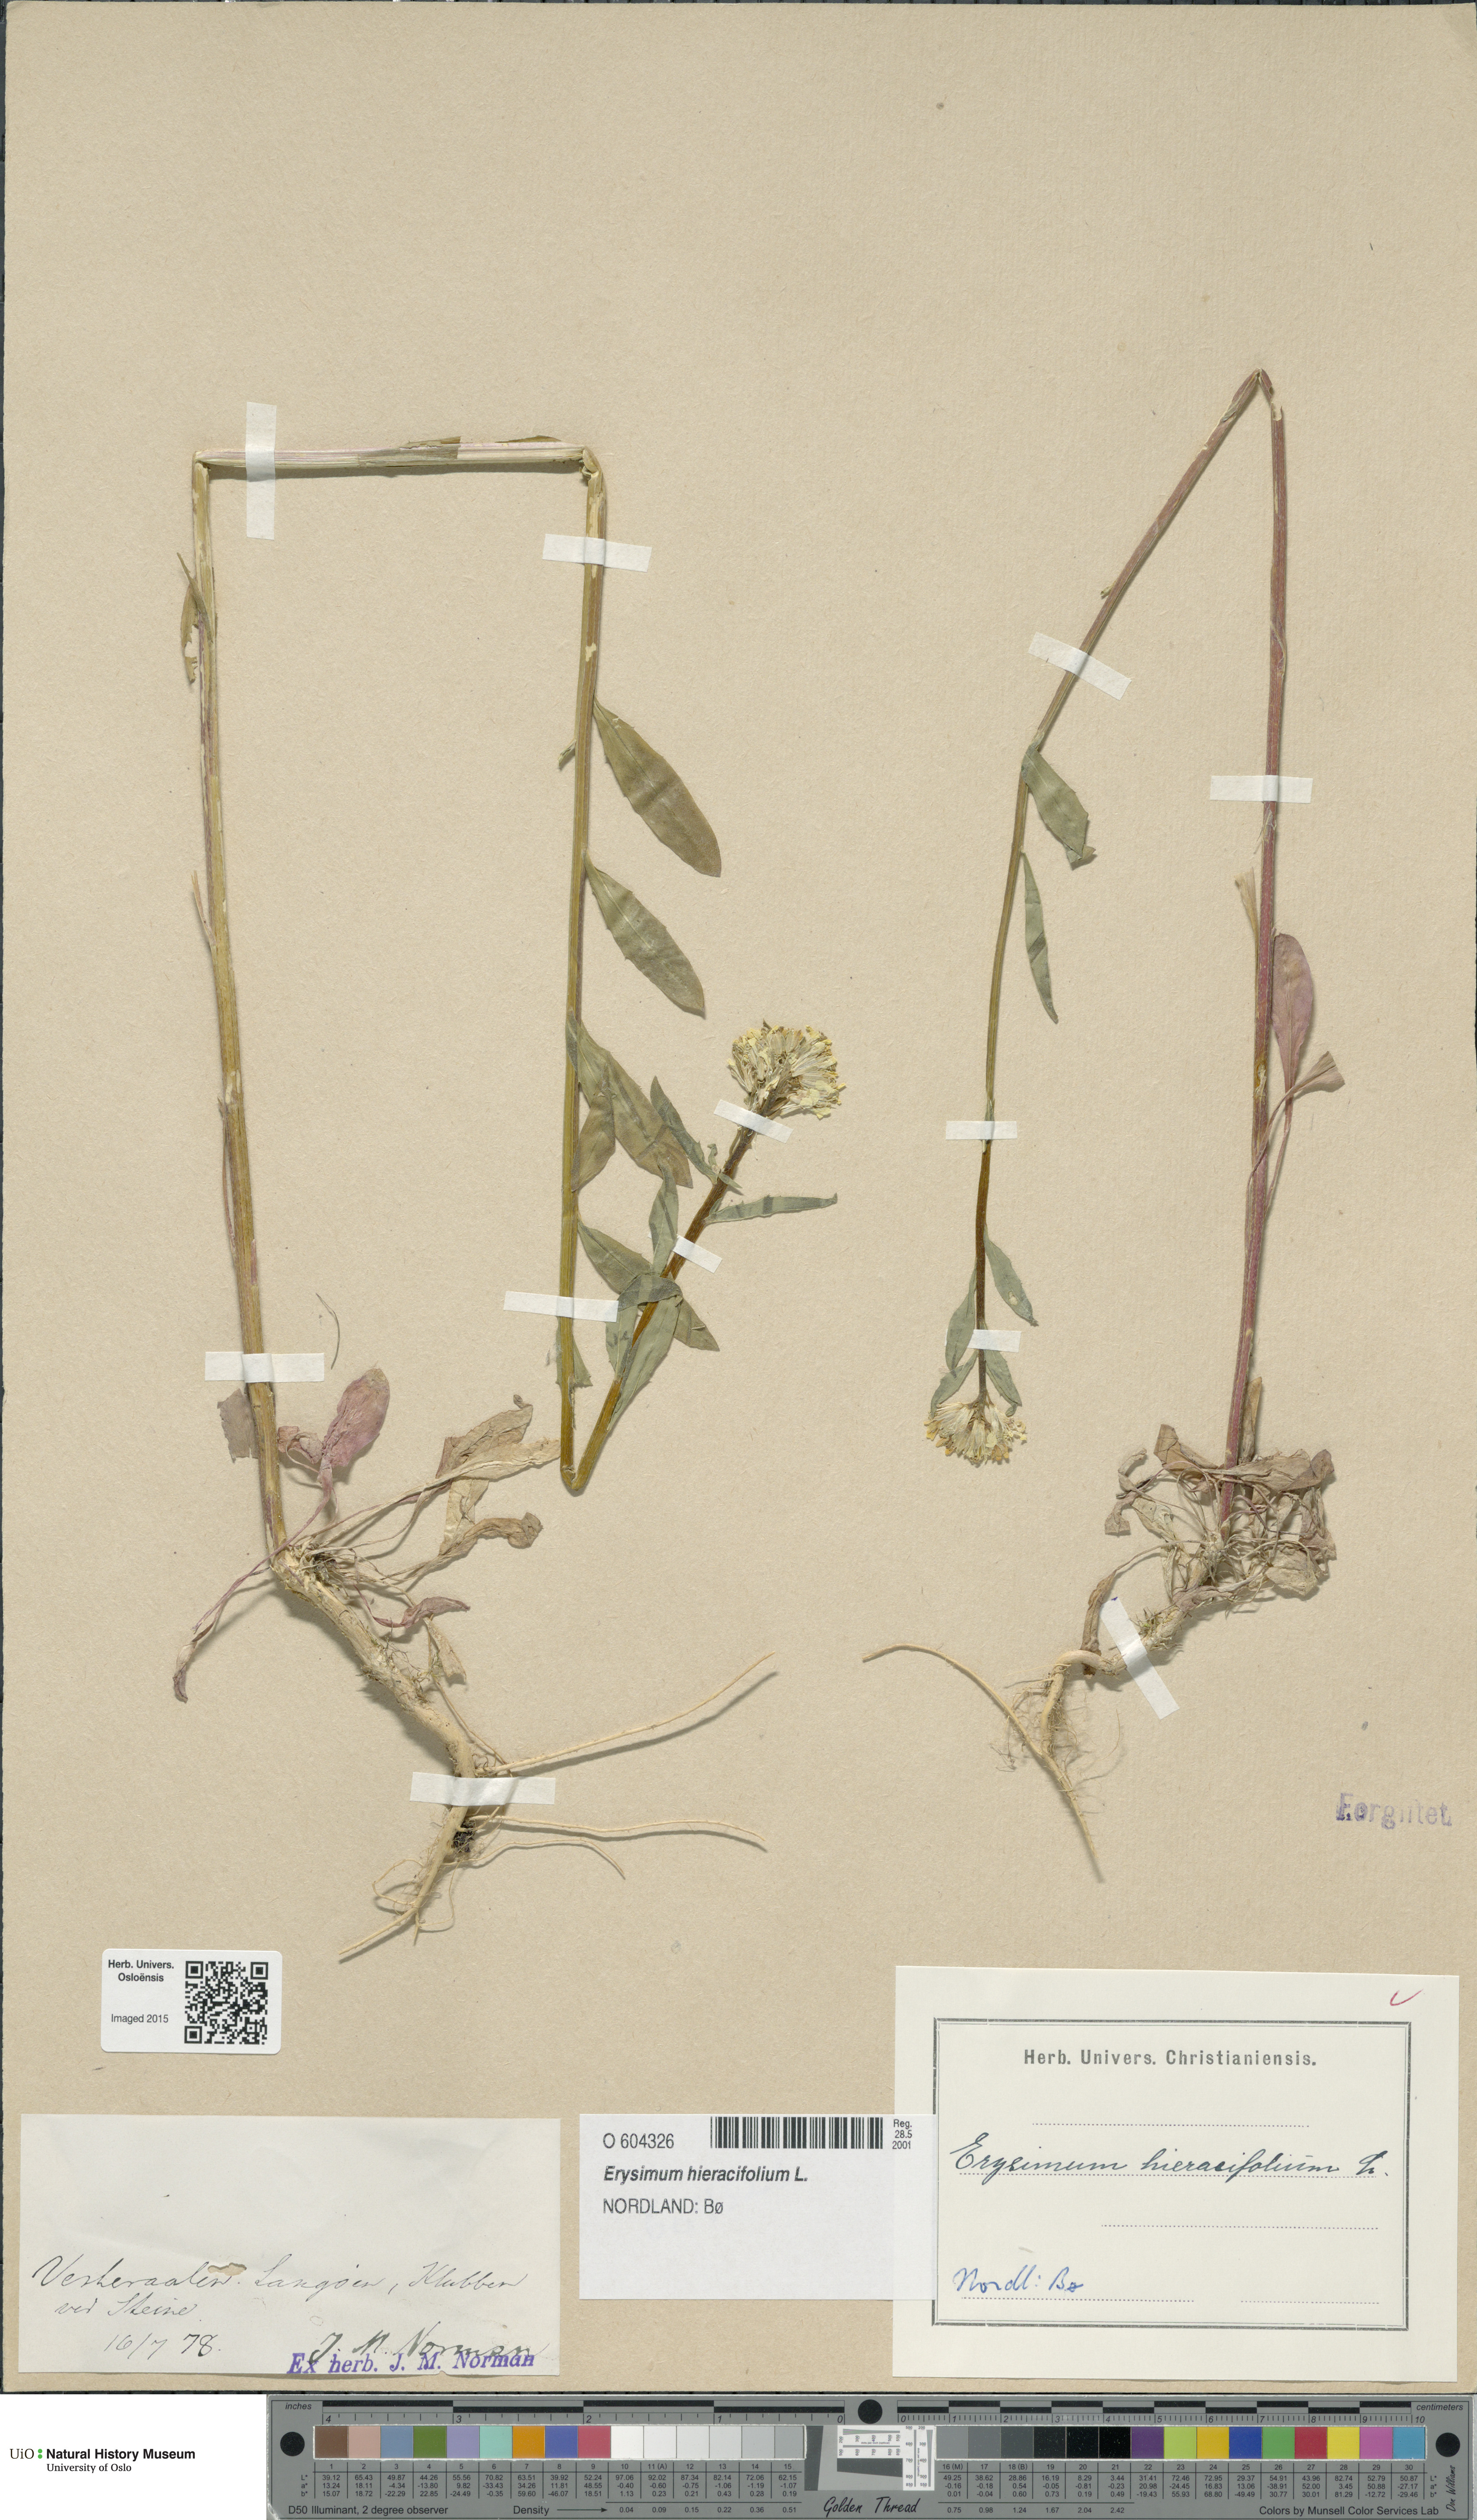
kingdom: Plantae
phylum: Tracheophyta
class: Magnoliopsida
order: Brassicales
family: Brassicaceae
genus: Erysimum
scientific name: Erysimum hieraciifolium
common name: European wallflower
